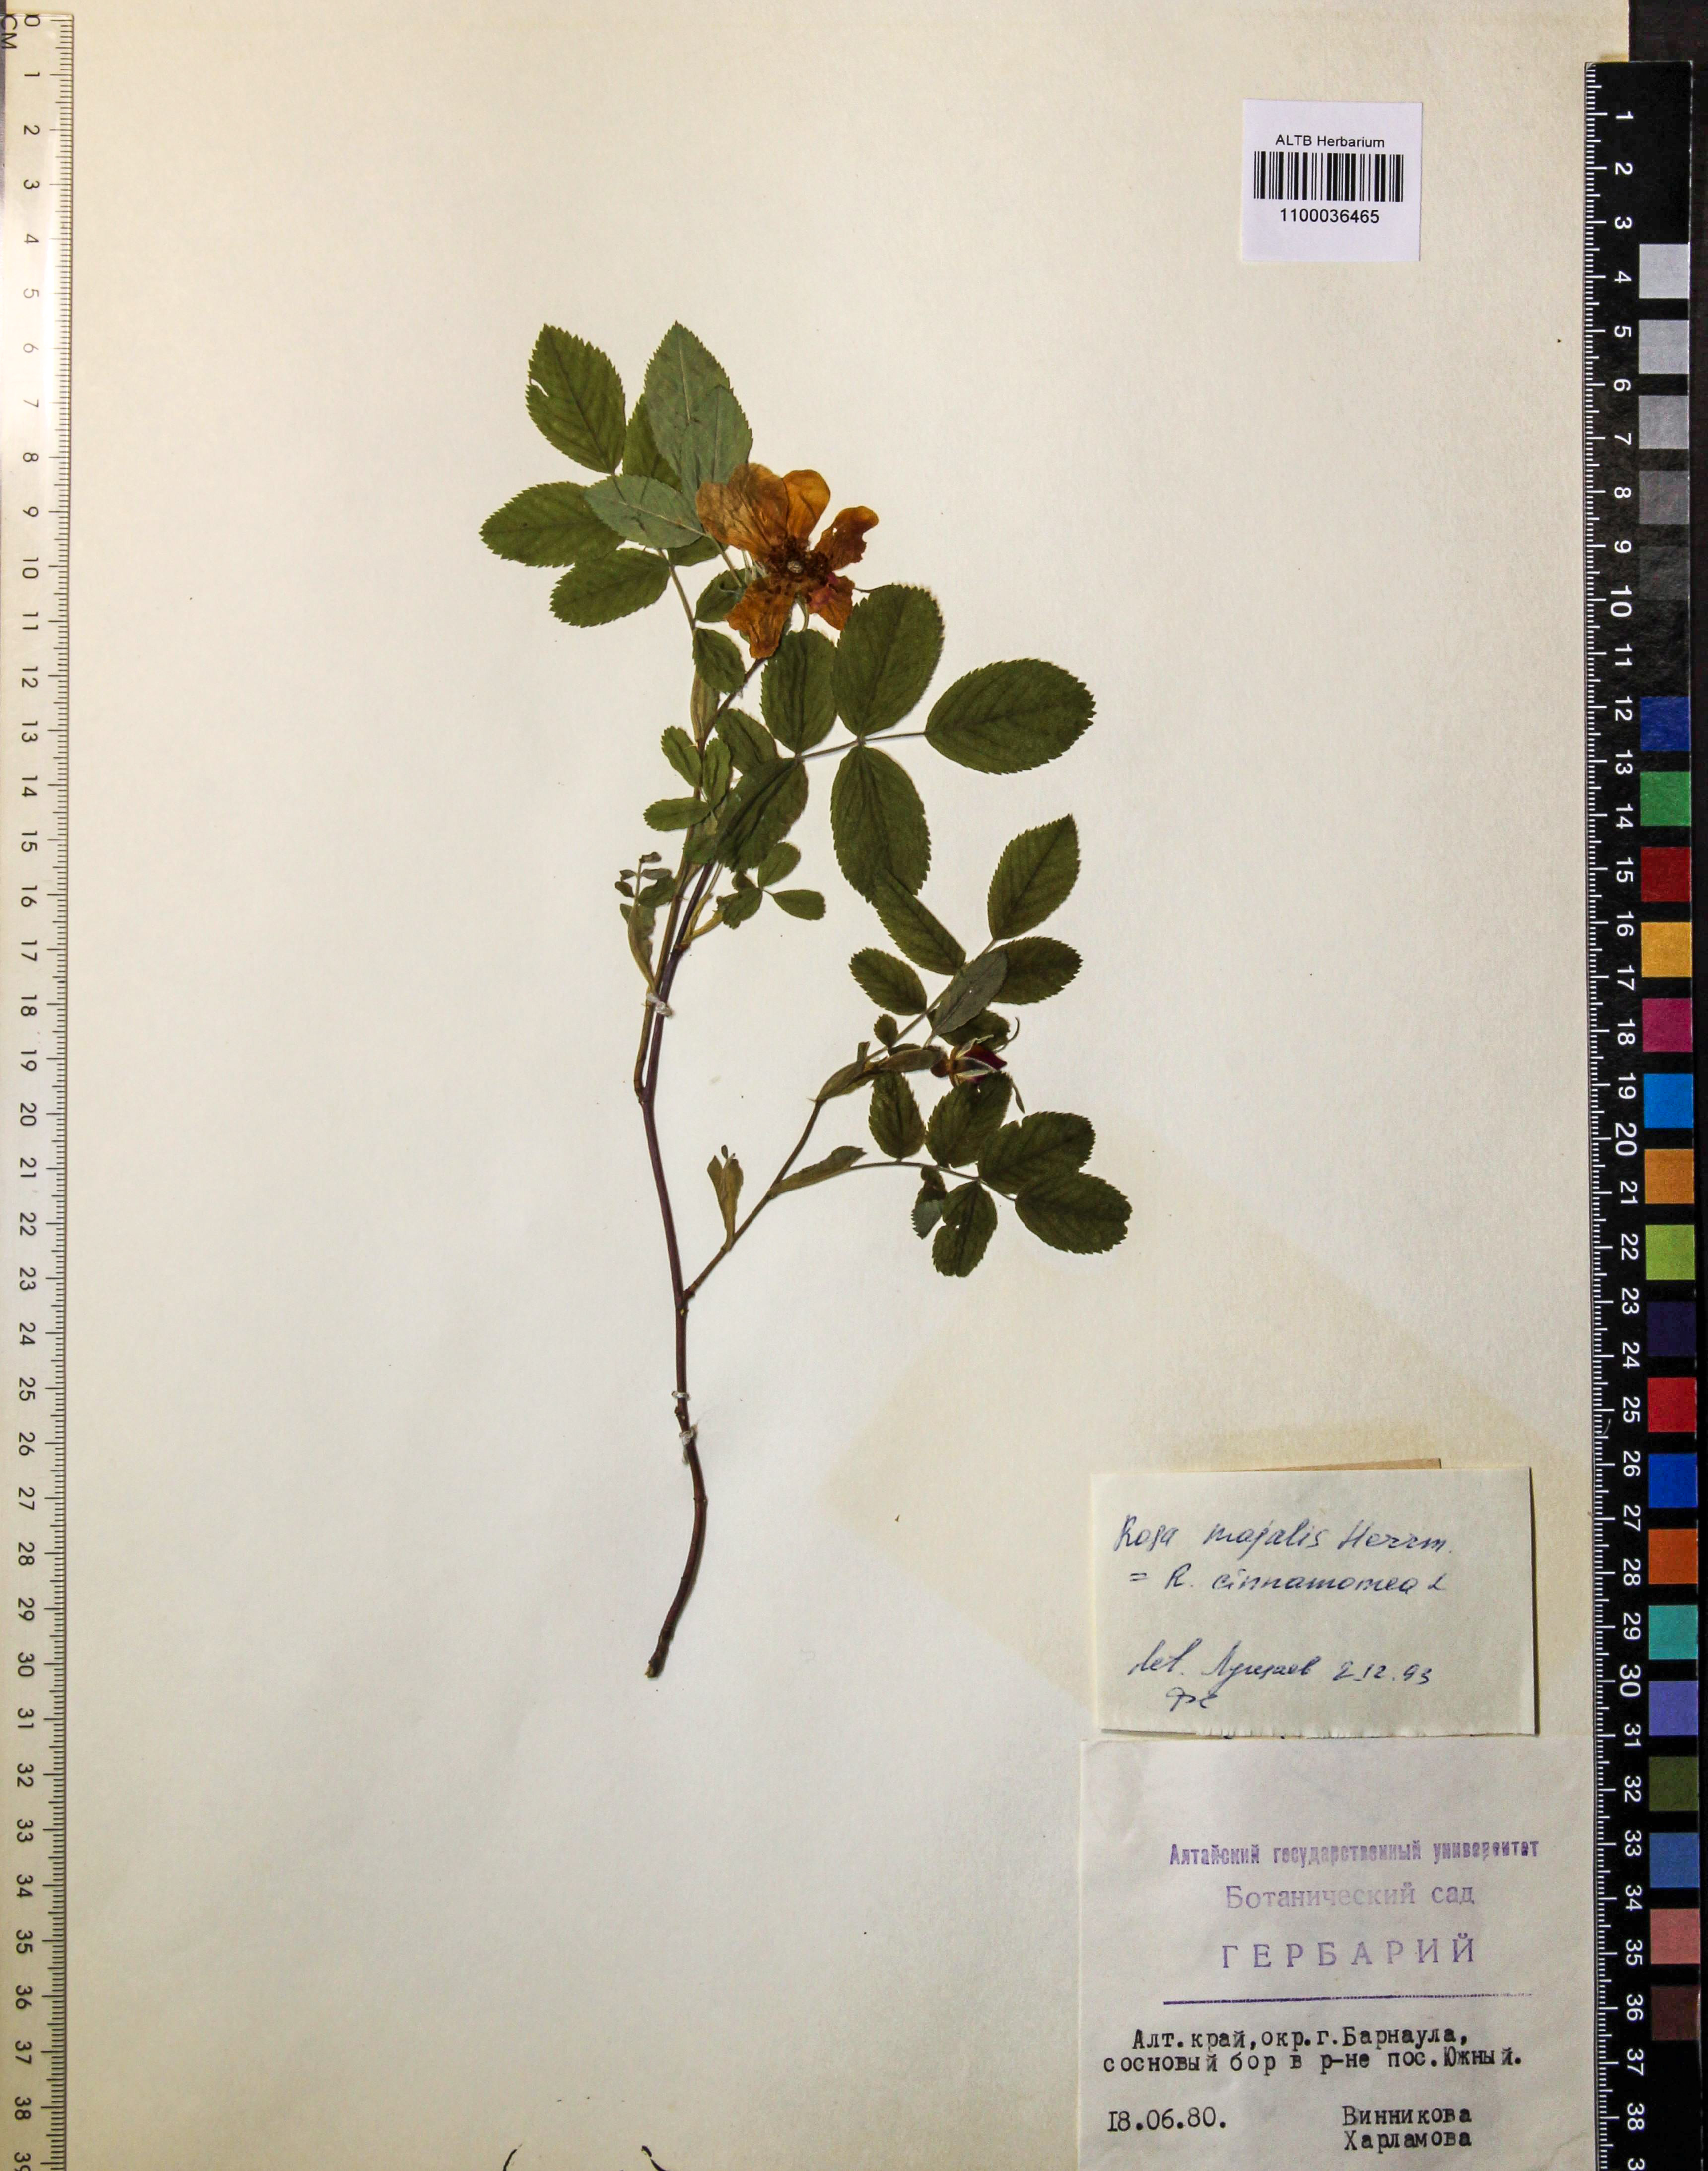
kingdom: Plantae
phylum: Tracheophyta
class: Magnoliopsida
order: Rosales
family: Rosaceae
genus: Rosa
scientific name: Rosa majalis
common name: Cinnamon rose
